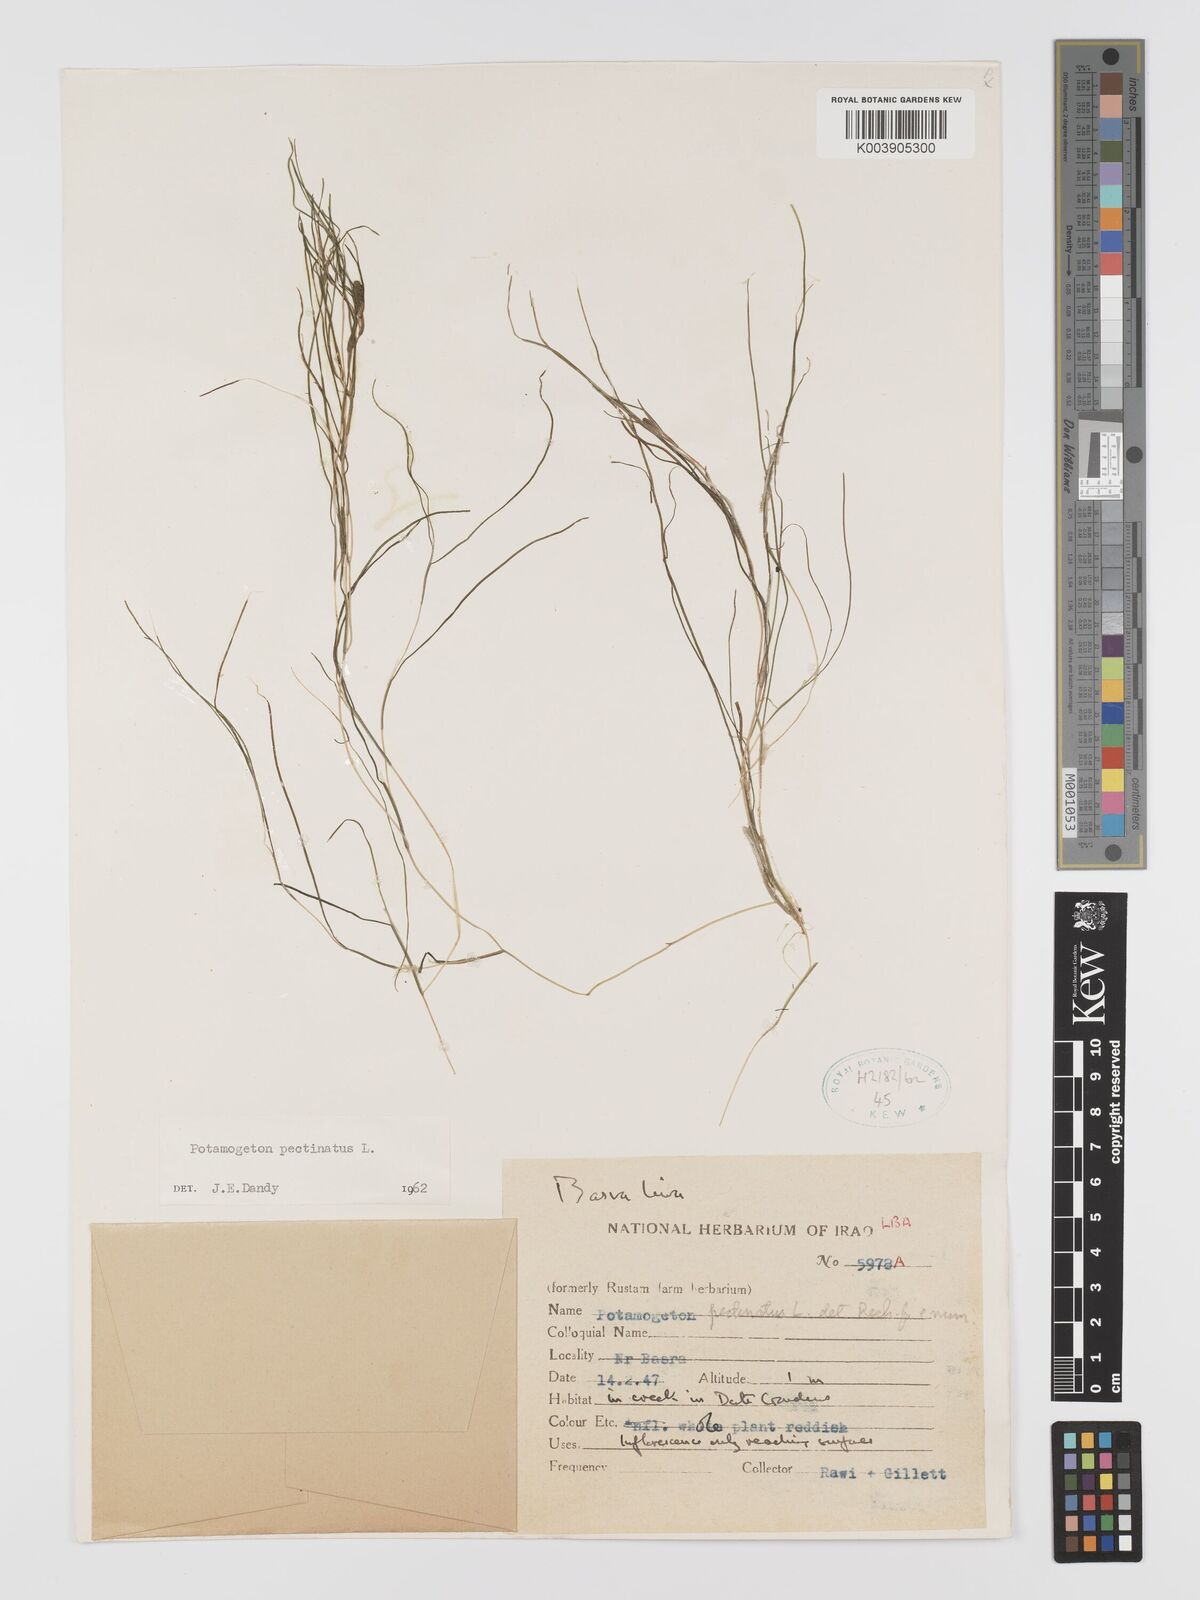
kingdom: Plantae
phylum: Tracheophyta
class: Liliopsida
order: Alismatales
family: Potamogetonaceae
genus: Stuckenia
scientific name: Stuckenia pectinata
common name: Sago pondweed
